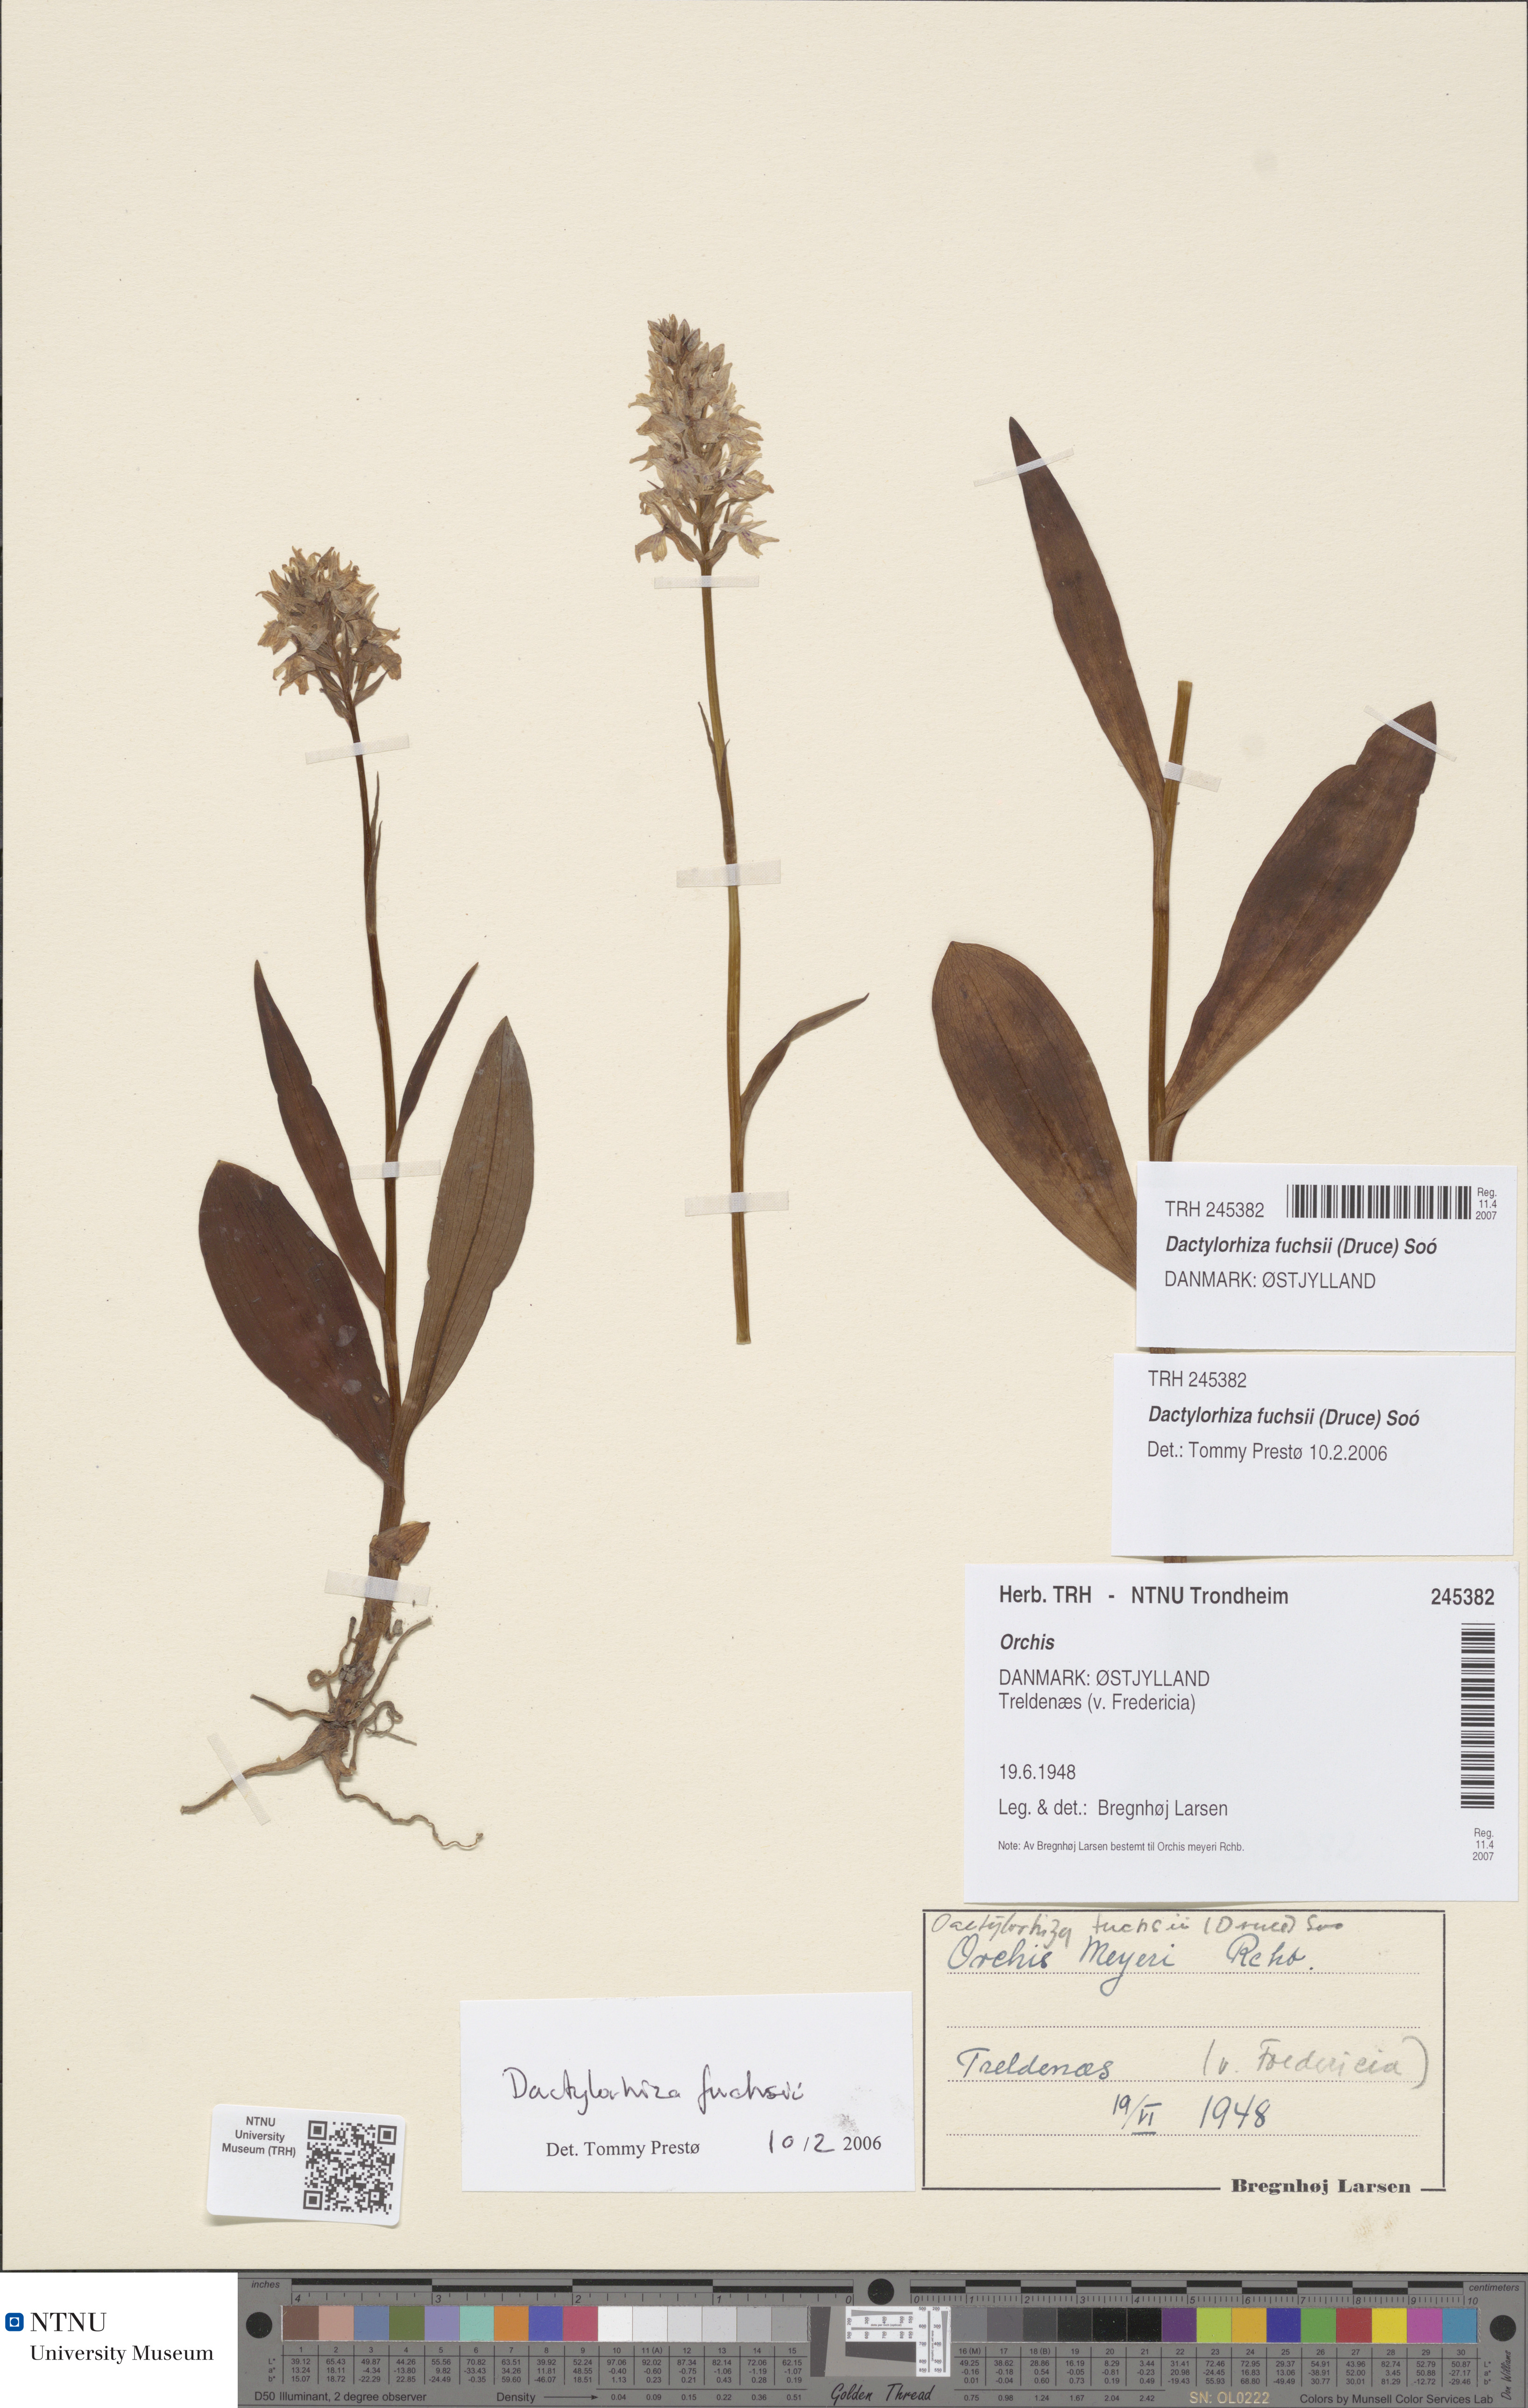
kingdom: Plantae
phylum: Tracheophyta
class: Liliopsida
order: Asparagales
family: Orchidaceae
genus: Dactylorhiza
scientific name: Dactylorhiza maculata
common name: Heath spotted-orchid
